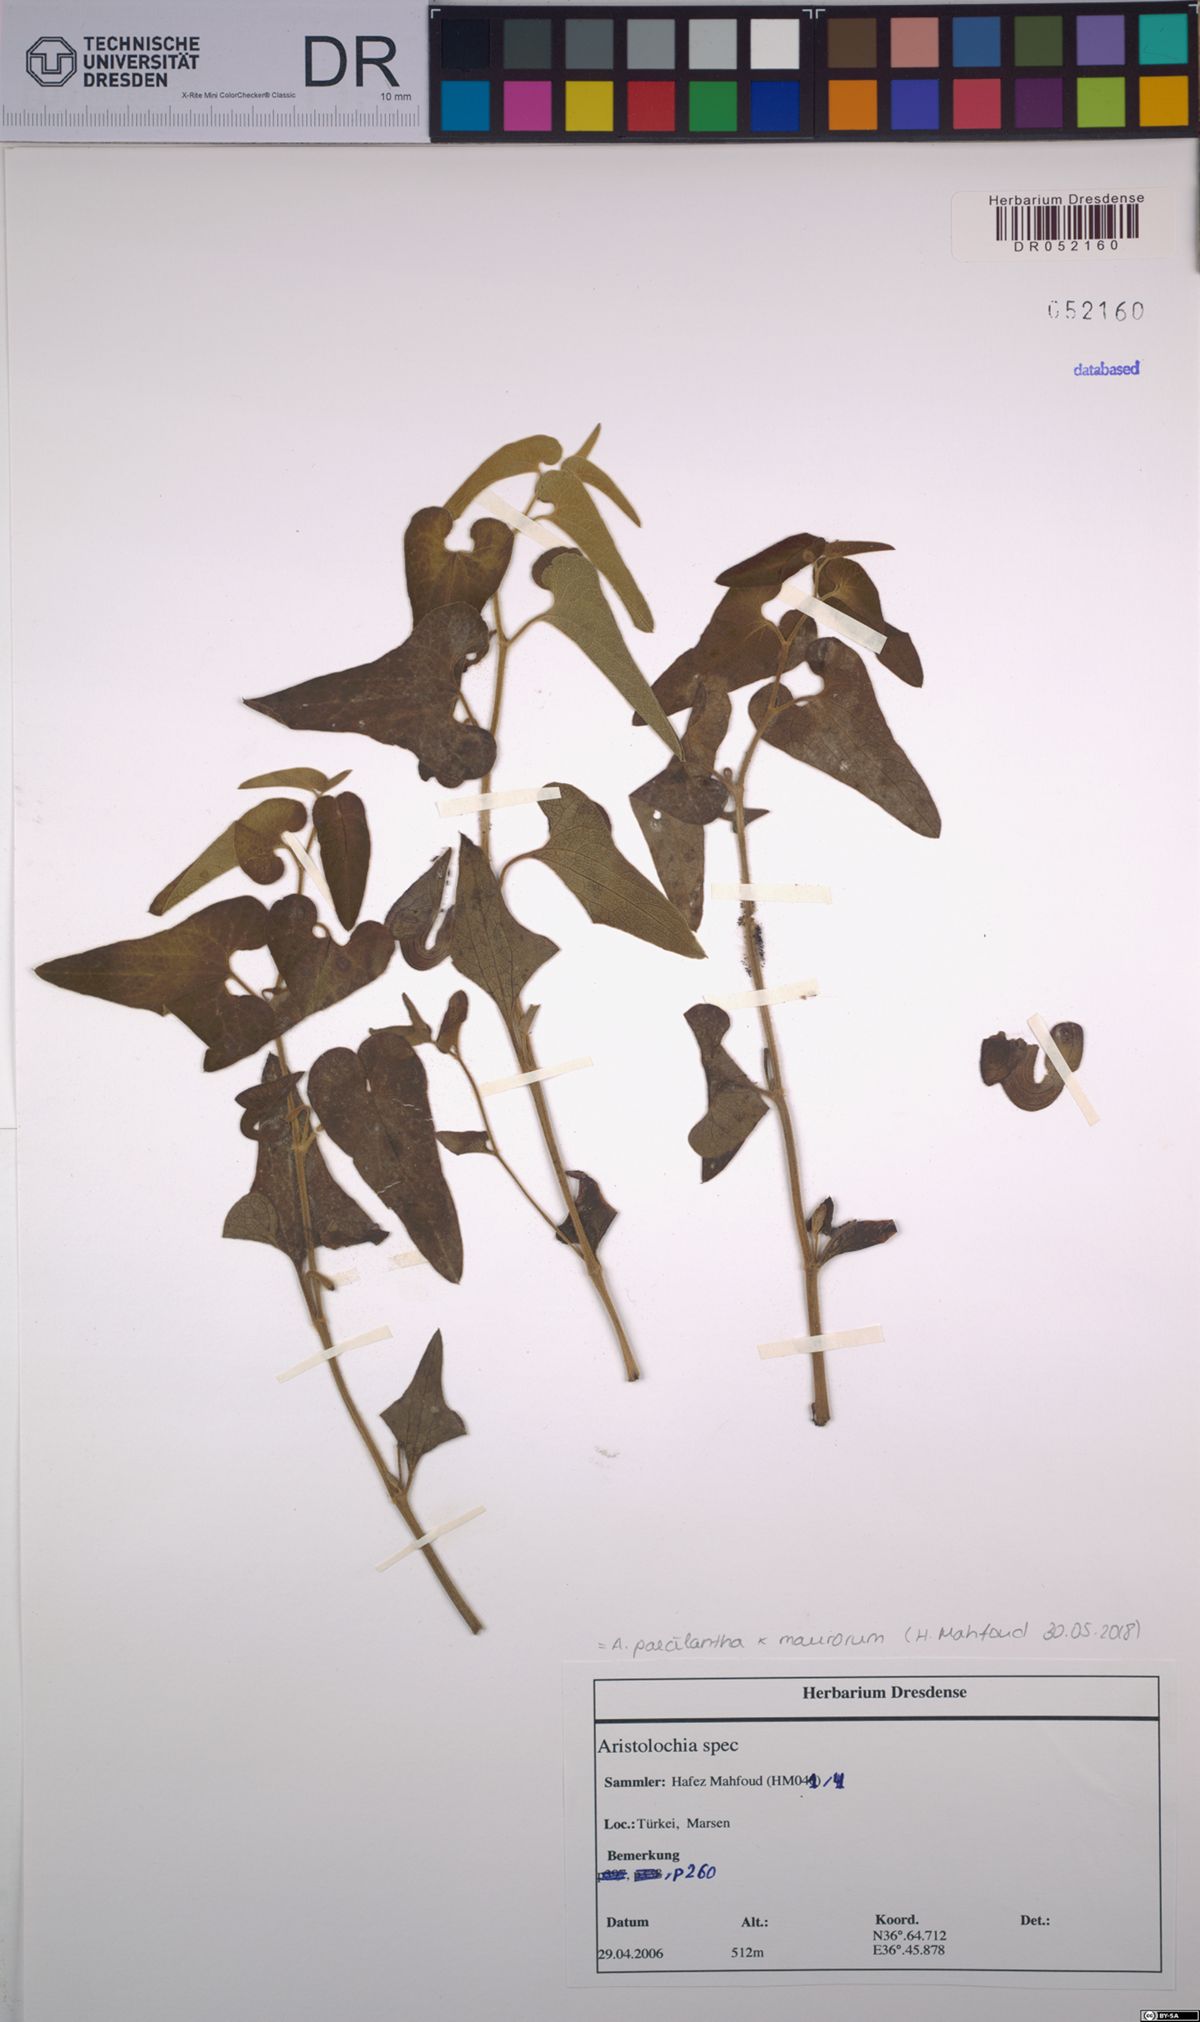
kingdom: Plantae
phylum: Tracheophyta
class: Magnoliopsida
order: Piperales
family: Aristolochiaceae
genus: Aristolochia
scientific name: Aristolochia paecilantha
